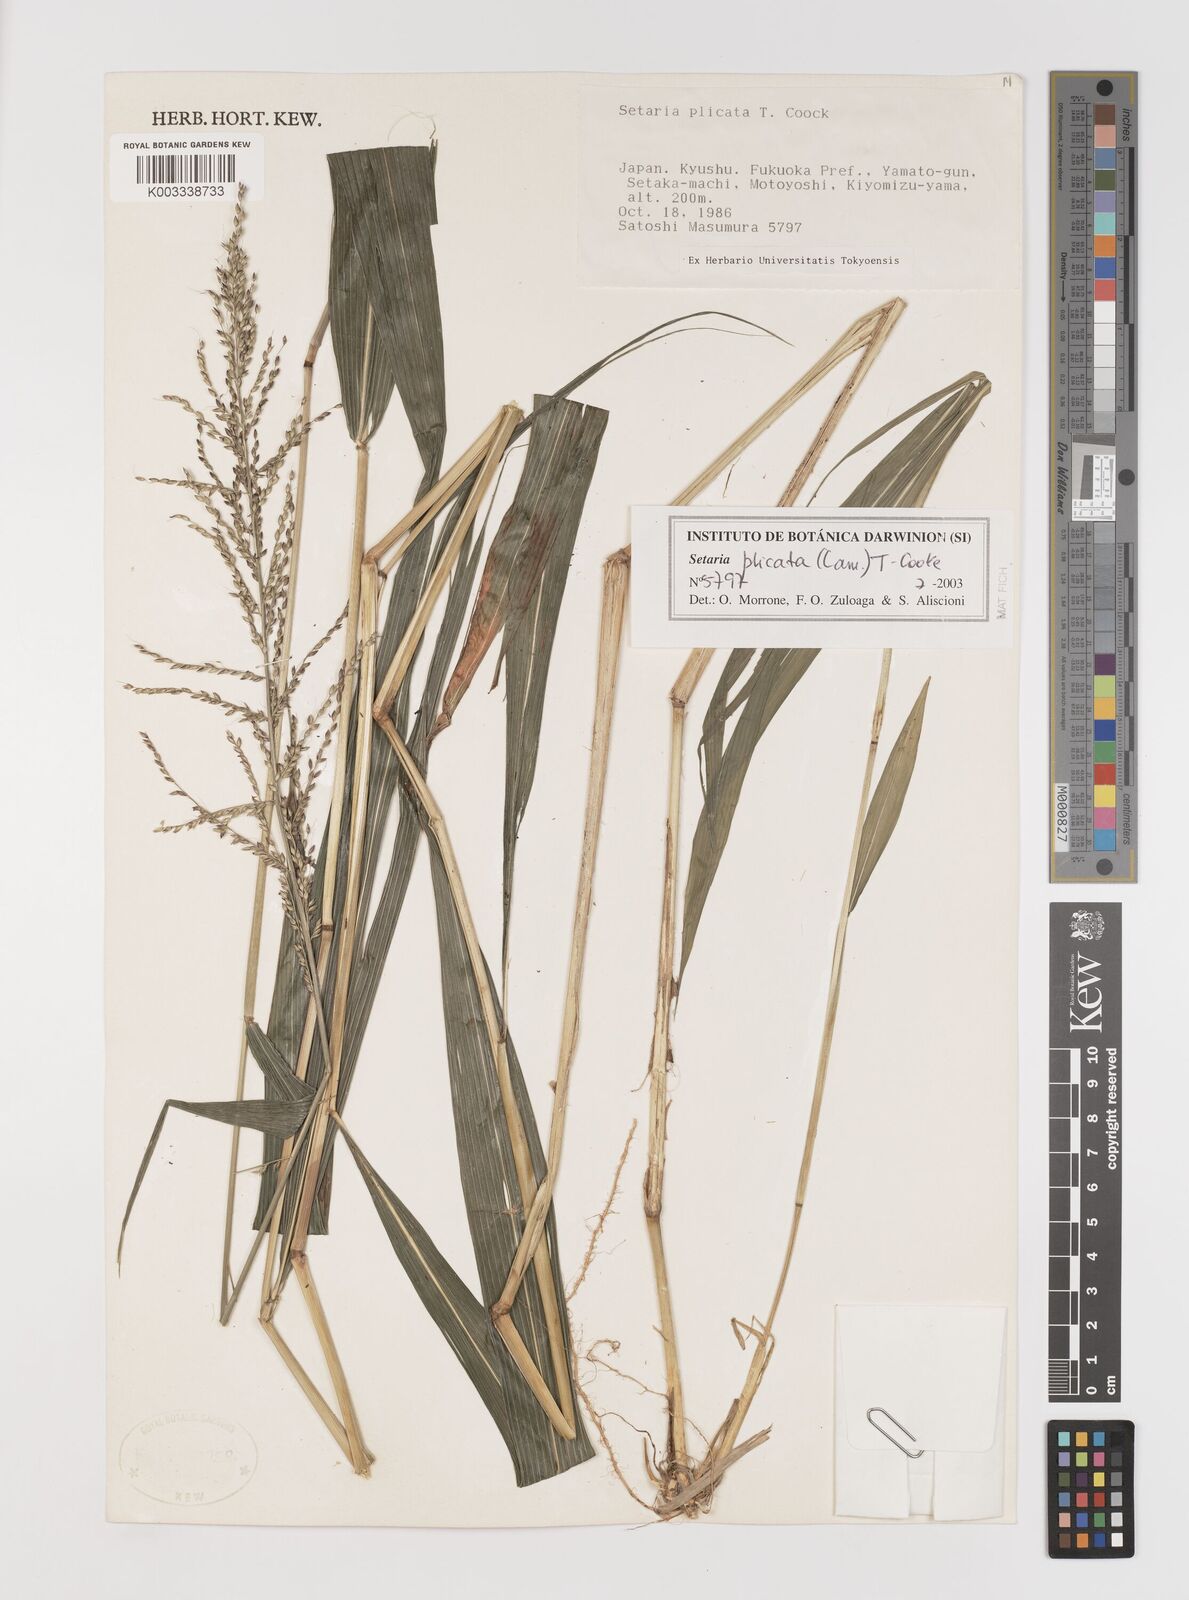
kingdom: Plantae
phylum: Tracheophyta
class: Liliopsida
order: Poales
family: Poaceae
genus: Setaria
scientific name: Setaria plicata
